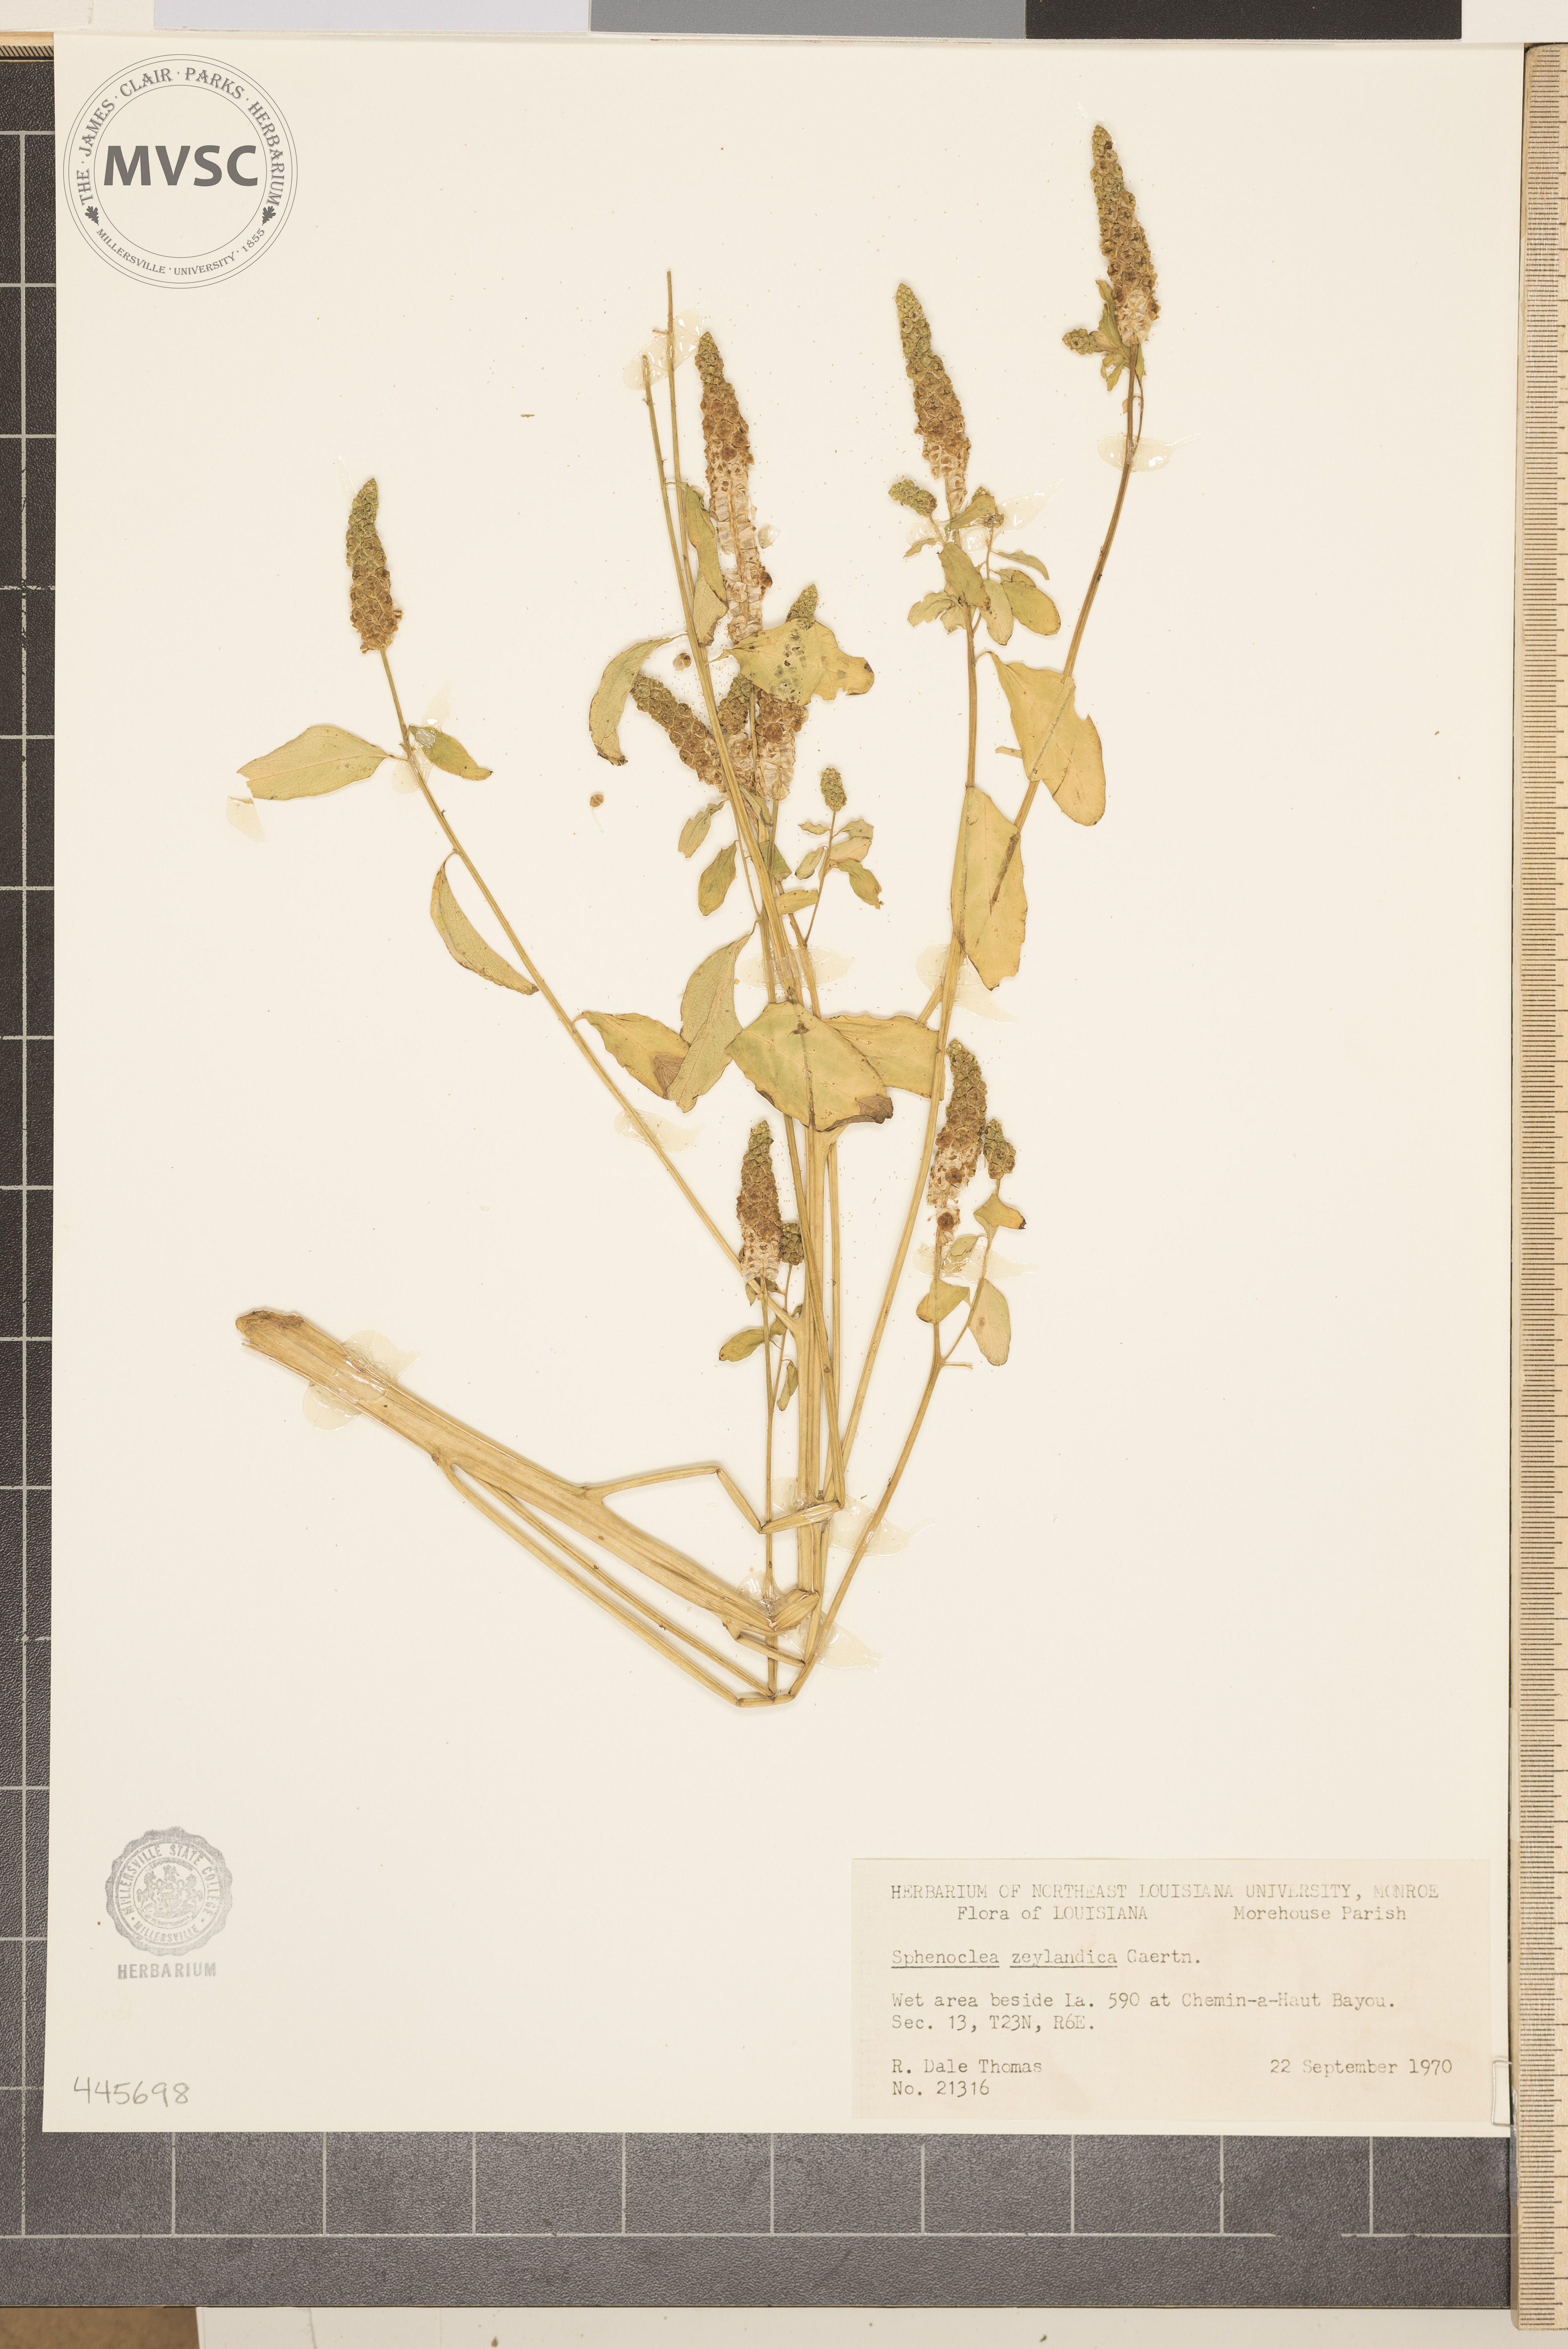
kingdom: Plantae
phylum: Tracheophyta
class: Magnoliopsida
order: Solanales
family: Sphenocleaceae
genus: Sphenoclea
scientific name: Sphenoclea zeylanica
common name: Chickenspike
